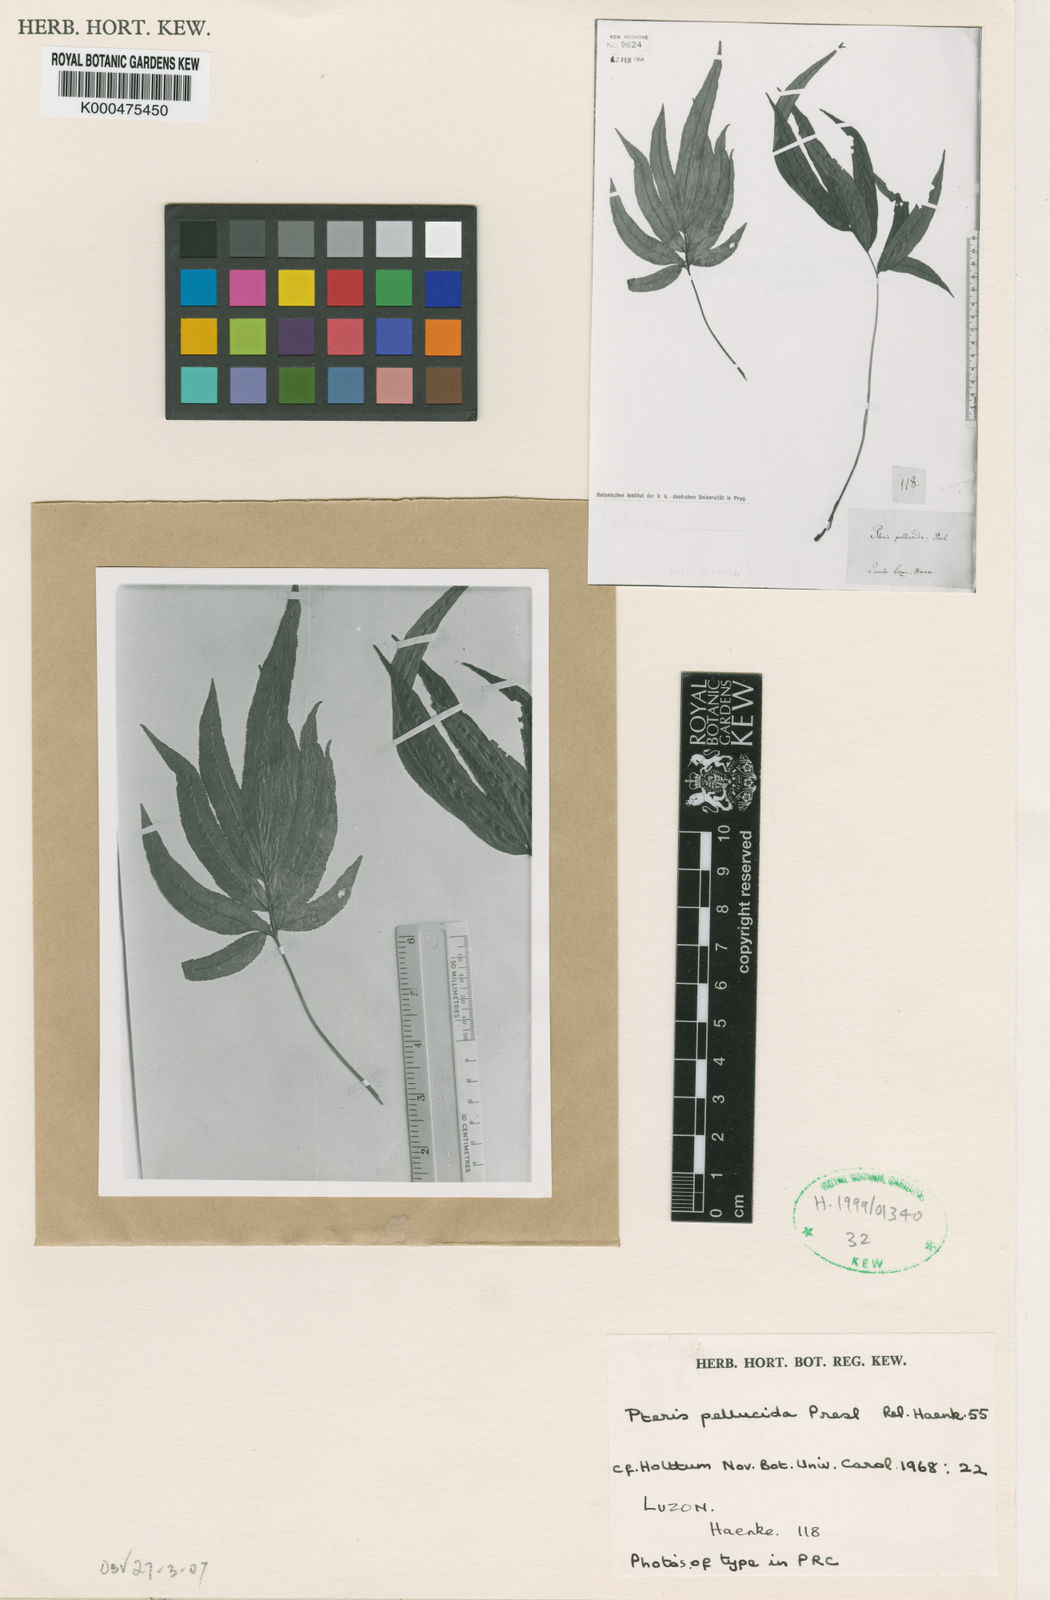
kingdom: Plantae
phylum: Tracheophyta
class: Polypodiopsida
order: Polypodiales
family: Pteridaceae
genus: Pteris
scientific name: Pteris
